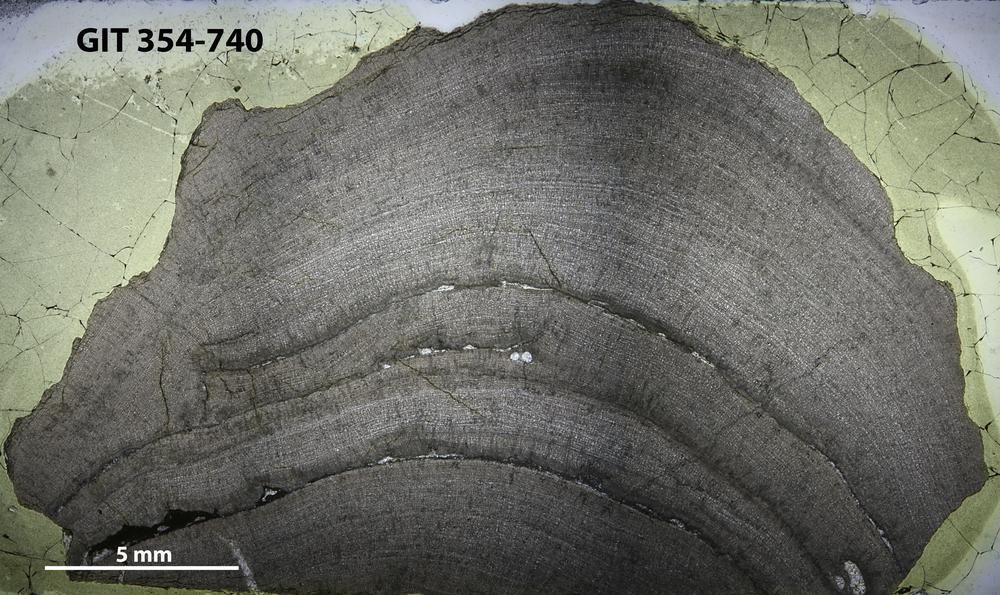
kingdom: Animalia
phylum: Porifera
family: Densastromatidae
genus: Densastroma
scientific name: Densastroma
